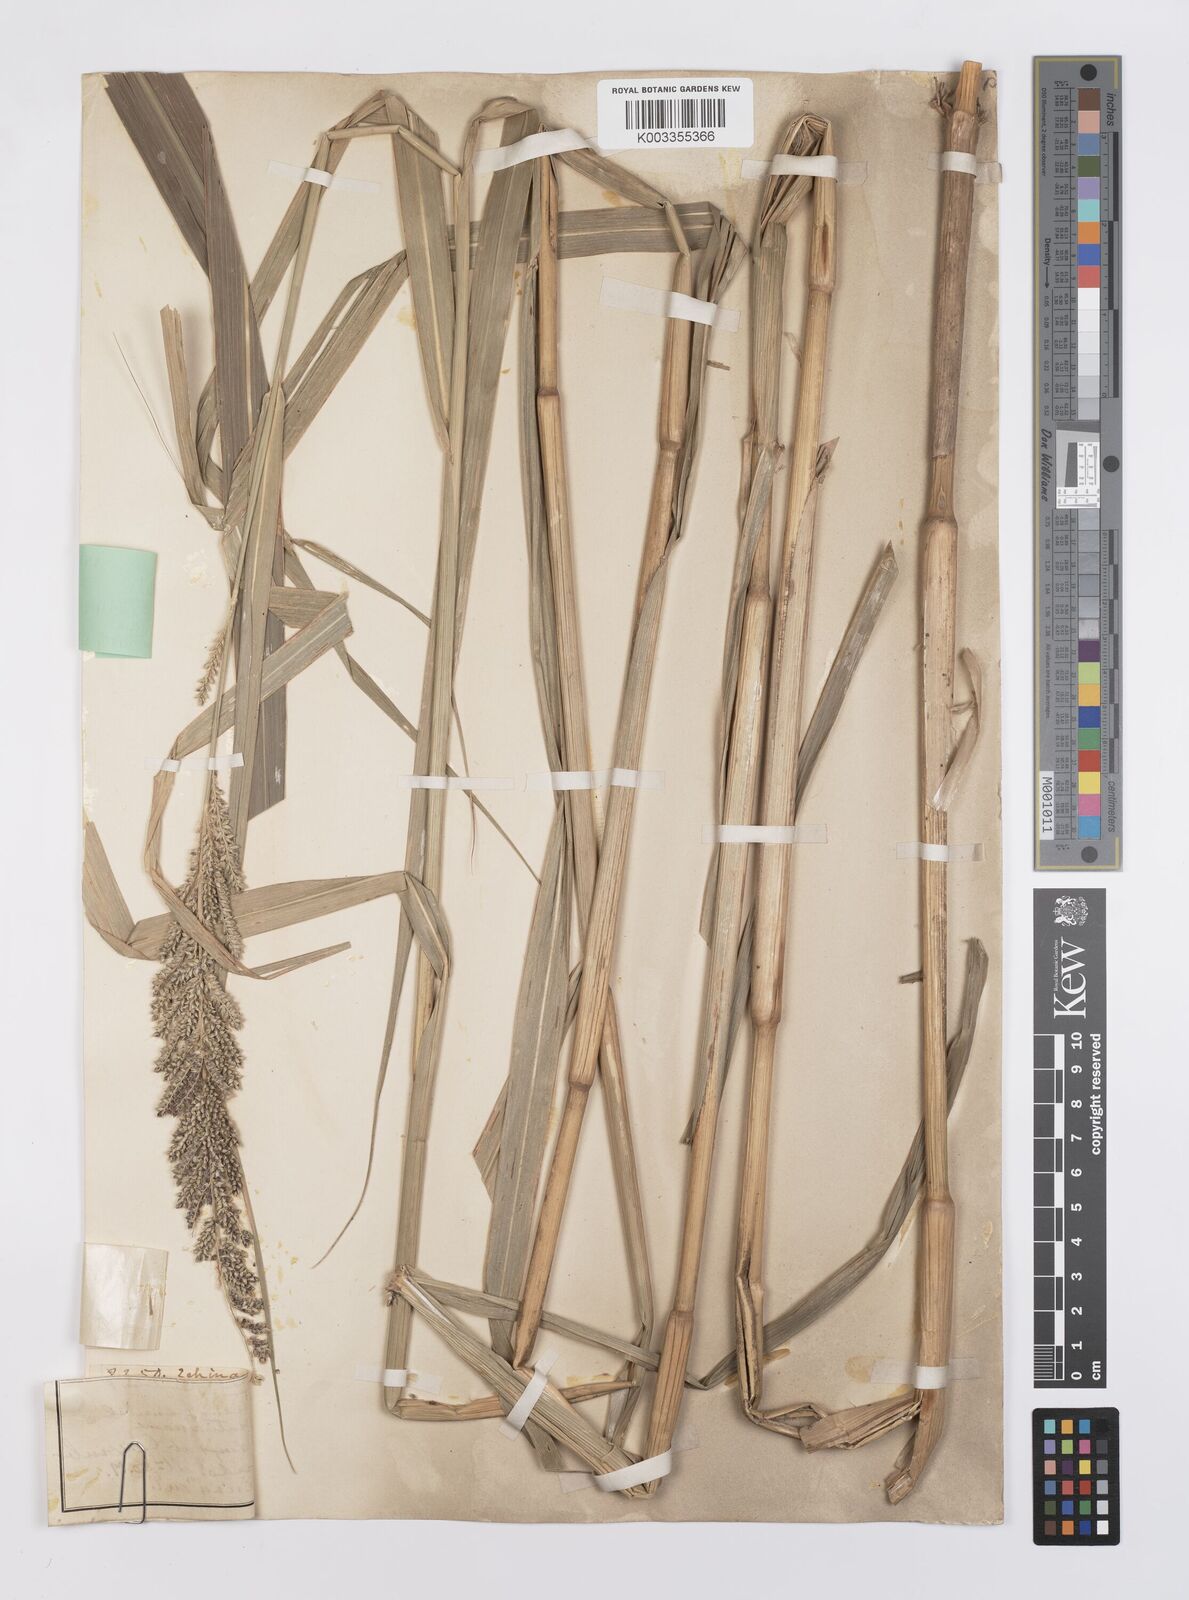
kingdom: Plantae
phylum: Tracheophyta
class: Liliopsida
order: Poales
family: Poaceae
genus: Echinochloa
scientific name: Echinochloa pyramidalis
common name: Antelope grass
